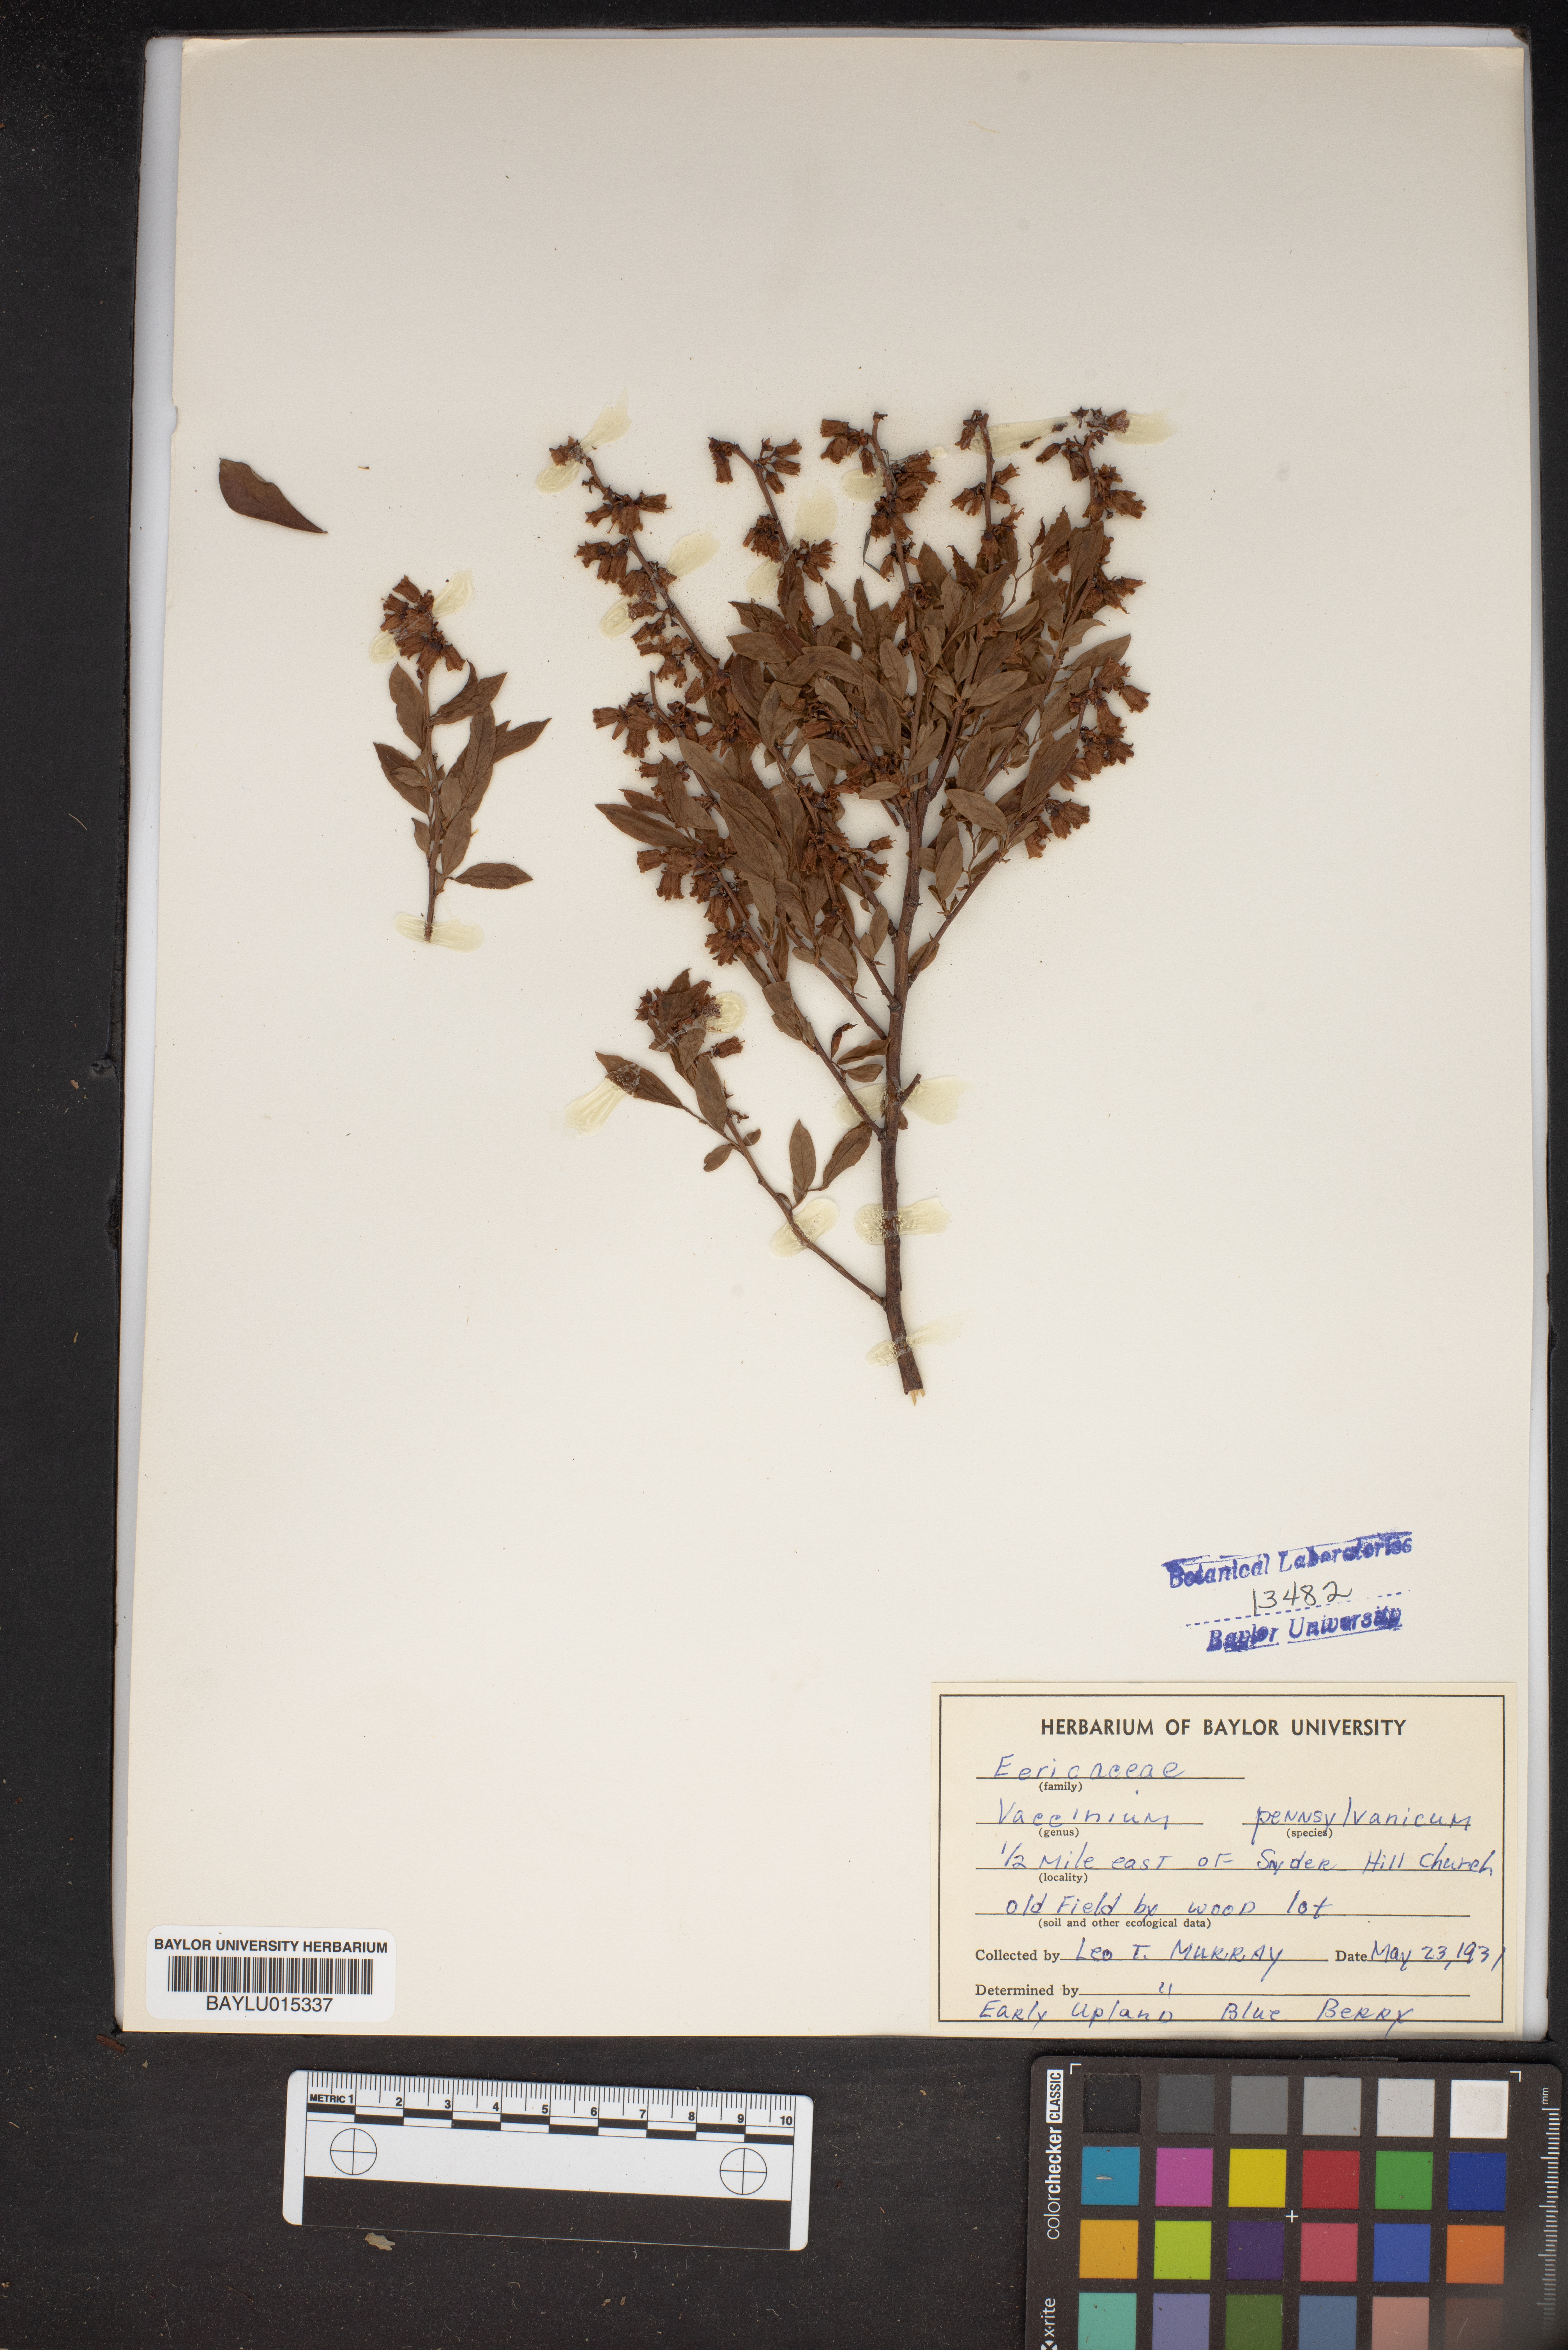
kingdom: Plantae
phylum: Tracheophyta
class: Magnoliopsida
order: Ericales
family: Ericaceae
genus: Vaccinium
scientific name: Vaccinium pallidum
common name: Blue ridge blueberry
